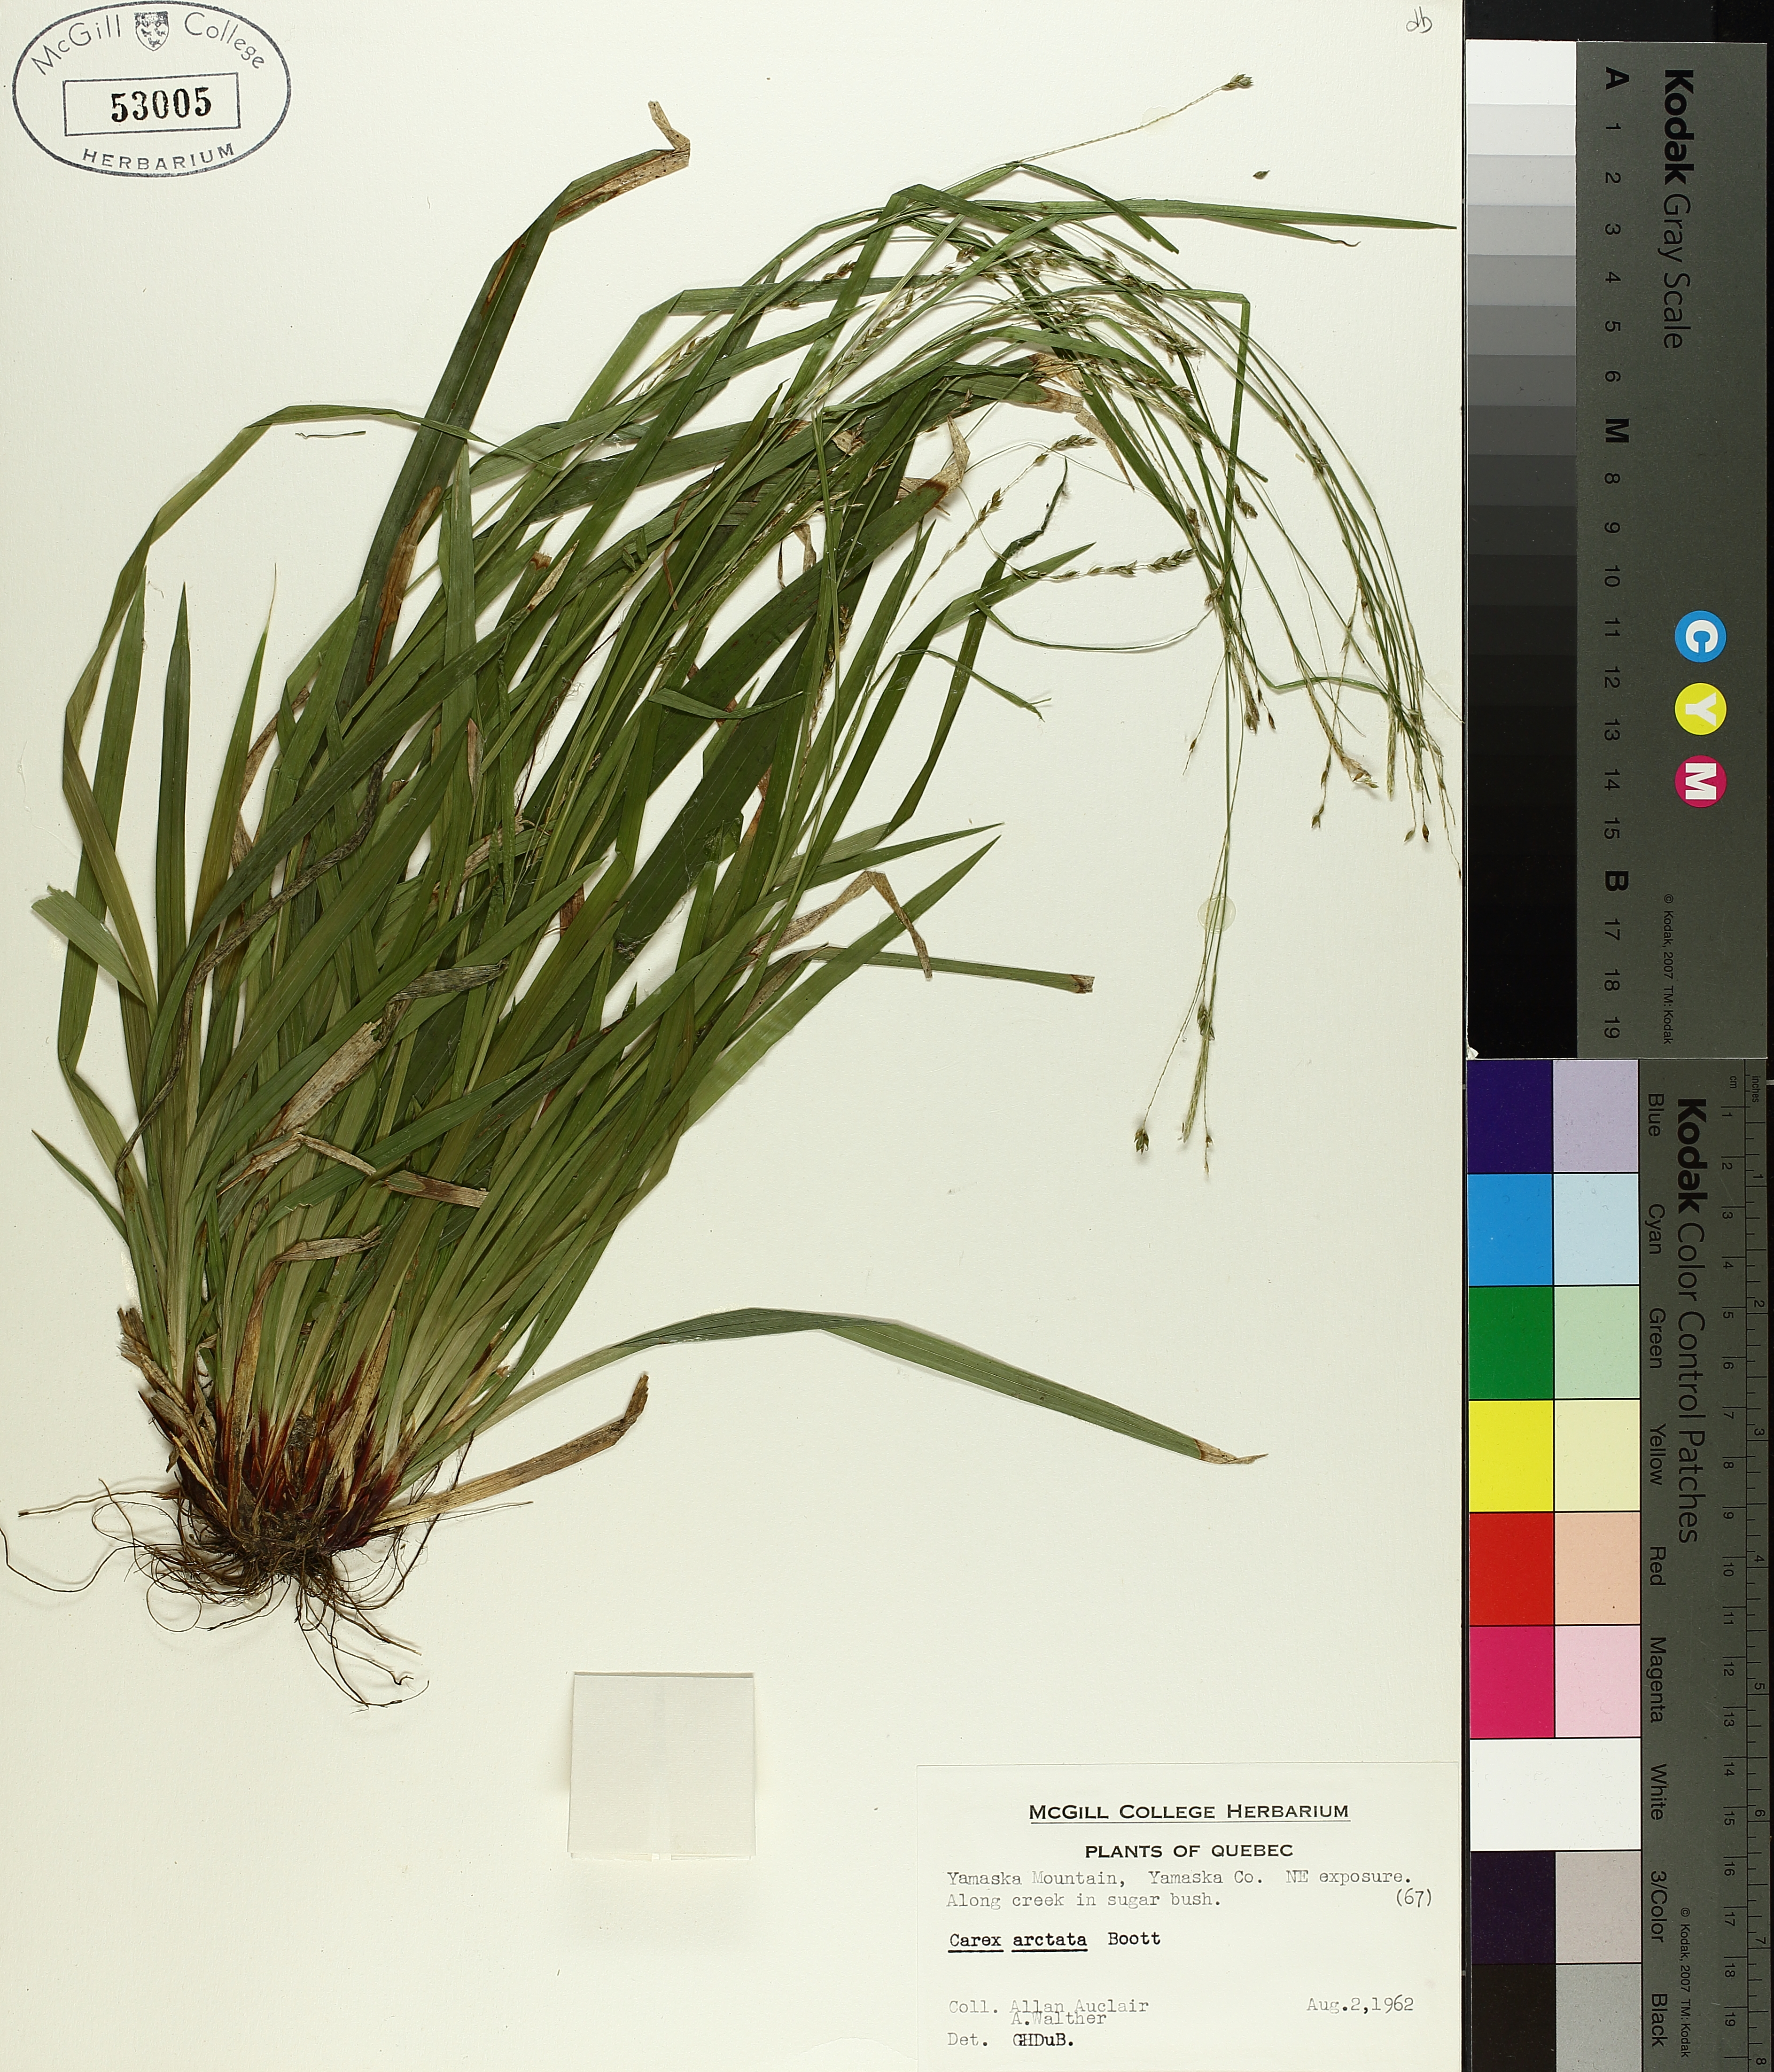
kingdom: Plantae
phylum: Tracheophyta
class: Liliopsida
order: Poales
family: Cyperaceae
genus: Carex
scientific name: Carex arctata
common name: Black sedge
